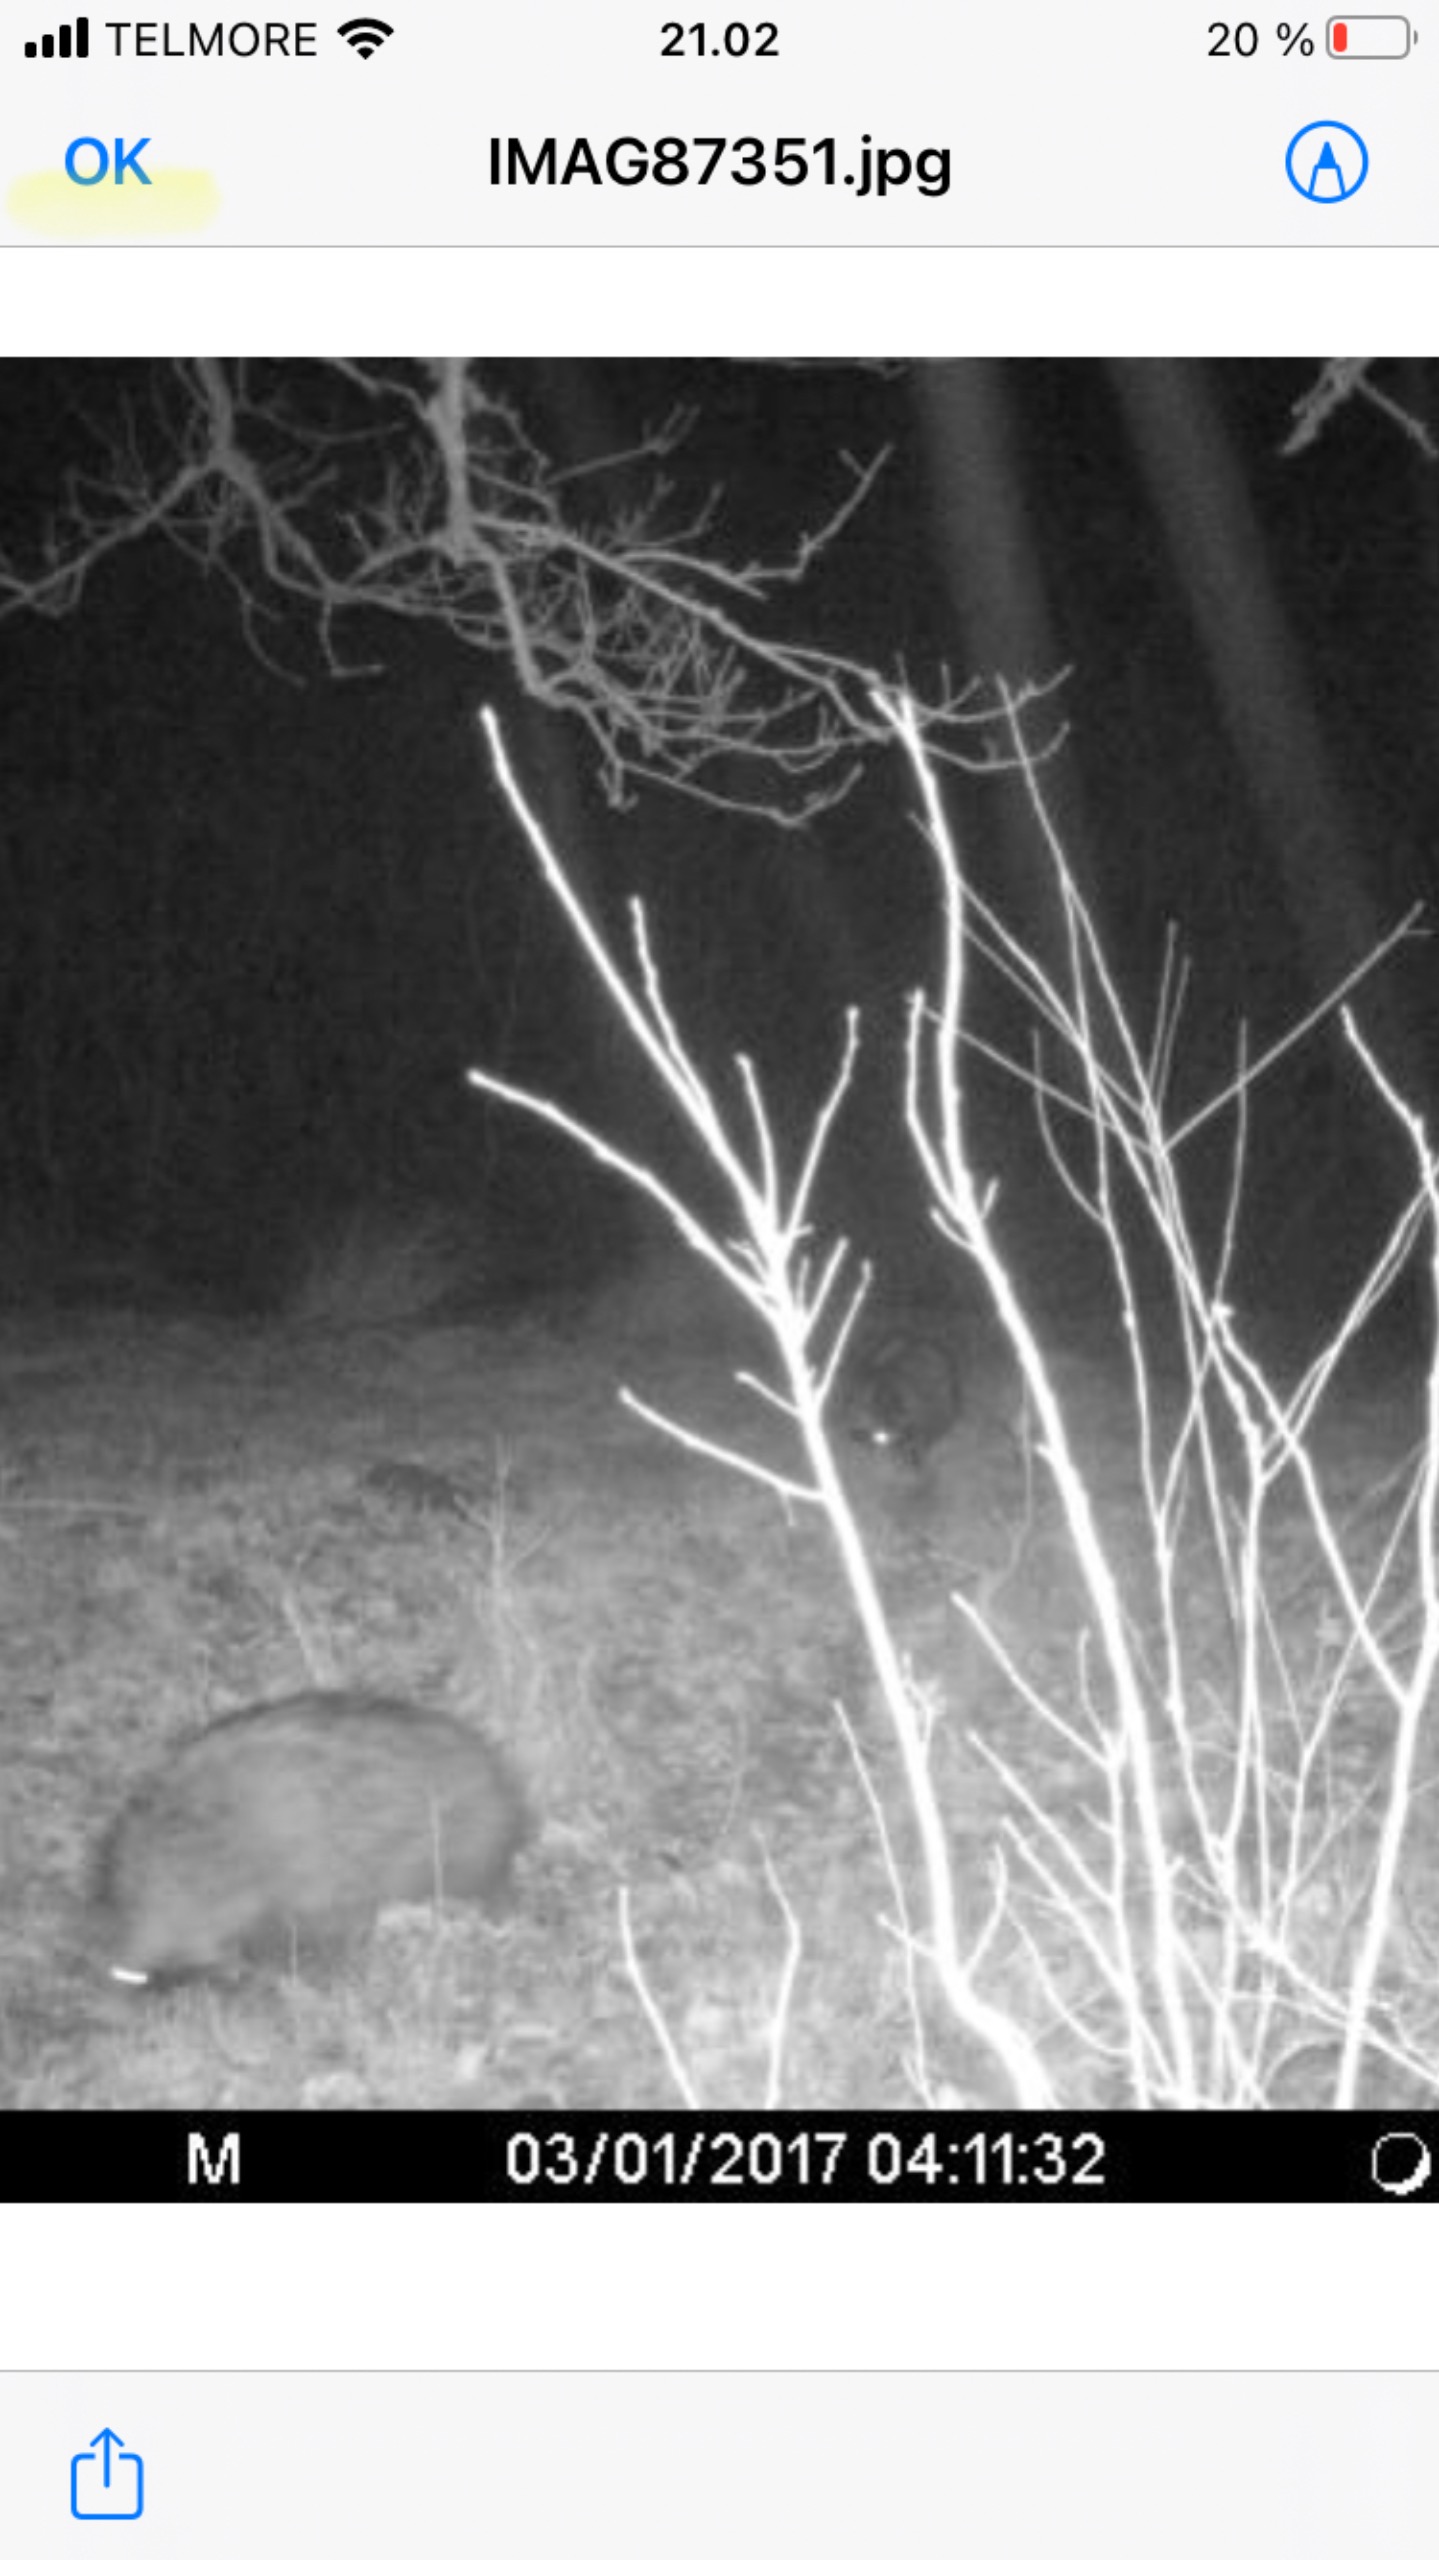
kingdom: Animalia
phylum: Chordata
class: Mammalia
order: Carnivora
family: Canidae
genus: Nyctereutes
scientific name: Nyctereutes procyonoides
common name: Mårhund
